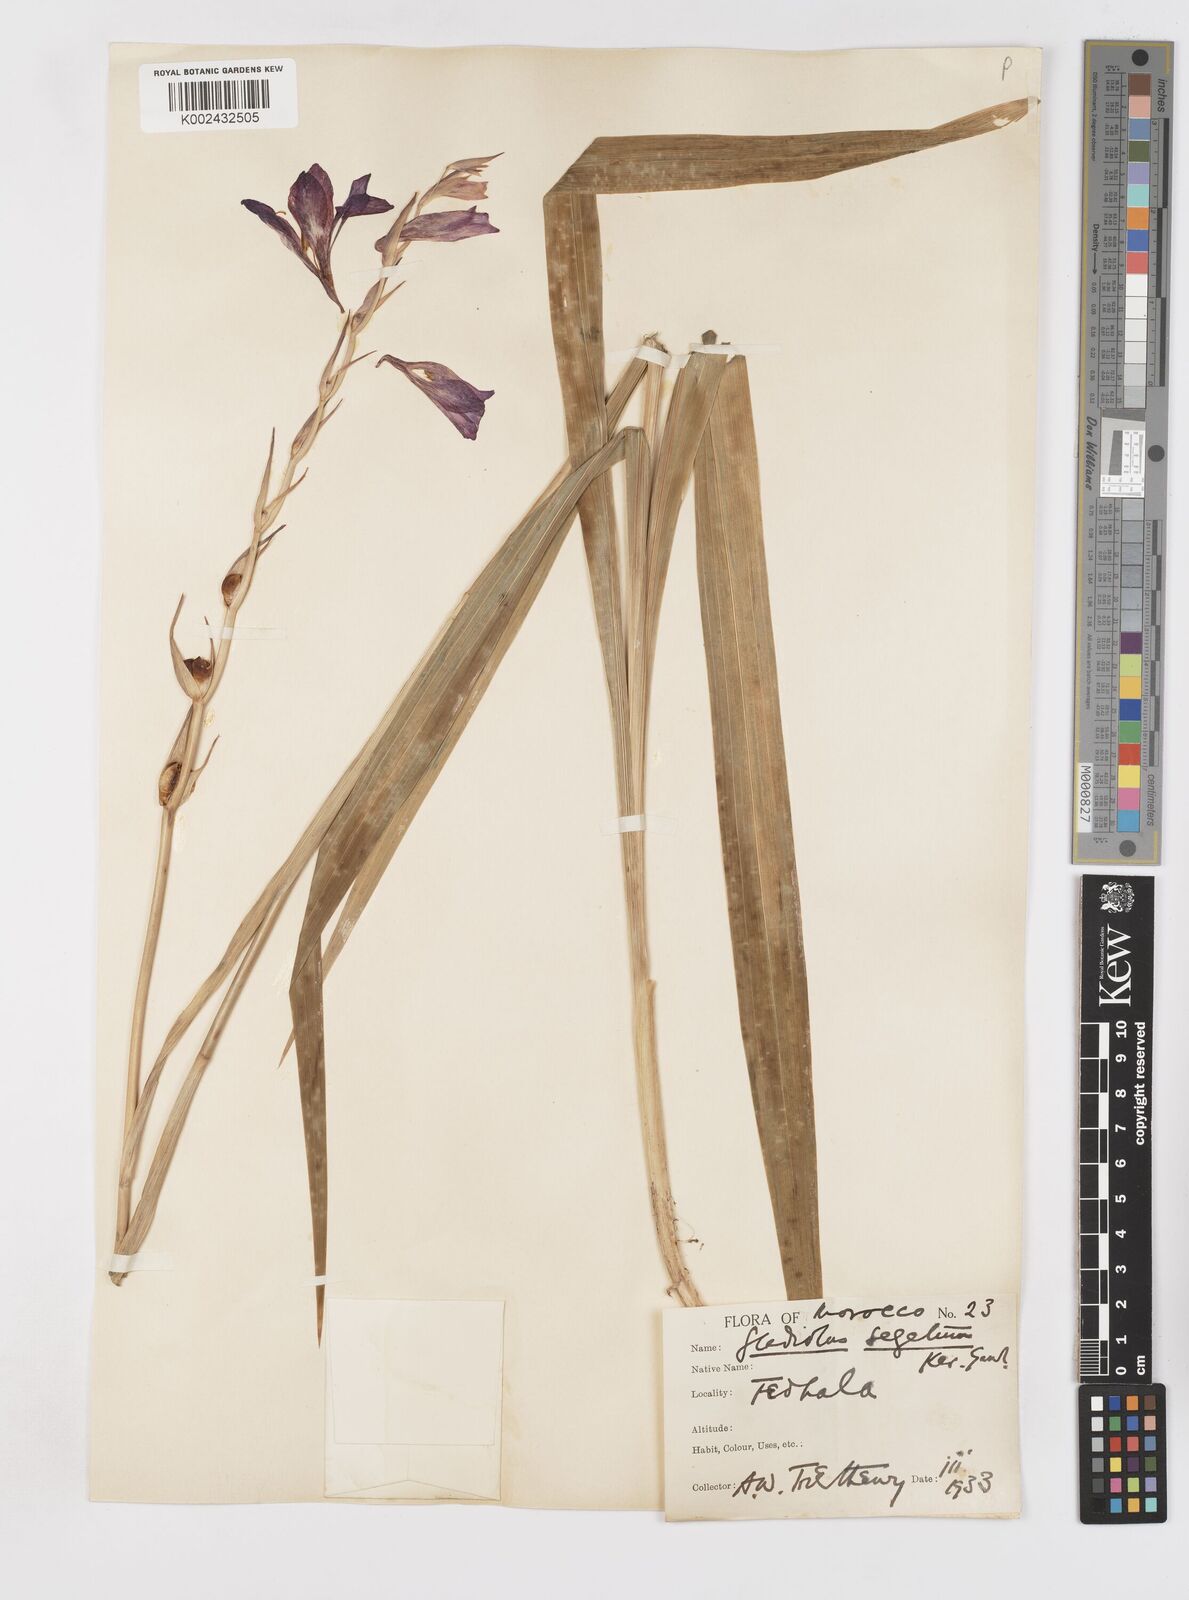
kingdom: Plantae
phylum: Tracheophyta
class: Liliopsida
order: Asparagales
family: Iridaceae
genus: Gladiolus
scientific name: Gladiolus italicus
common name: Field gladiolus
